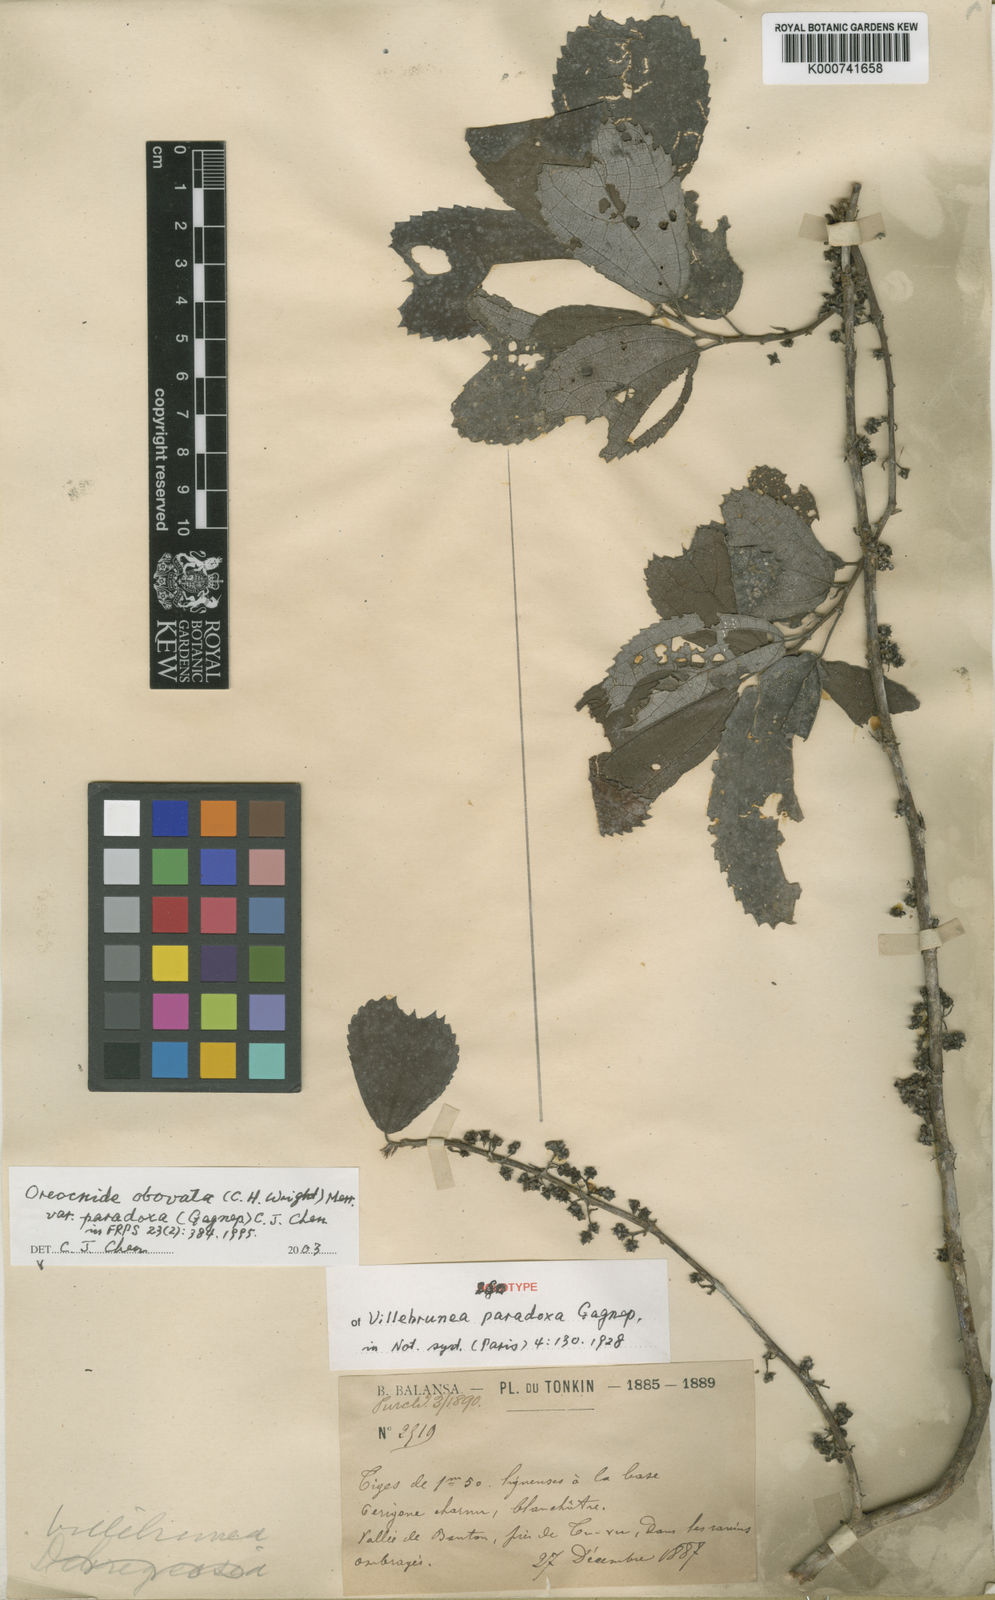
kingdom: Plantae
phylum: Tracheophyta
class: Magnoliopsida
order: Rosales
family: Urticaceae
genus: Oreocnide
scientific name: Oreocnide obovata
